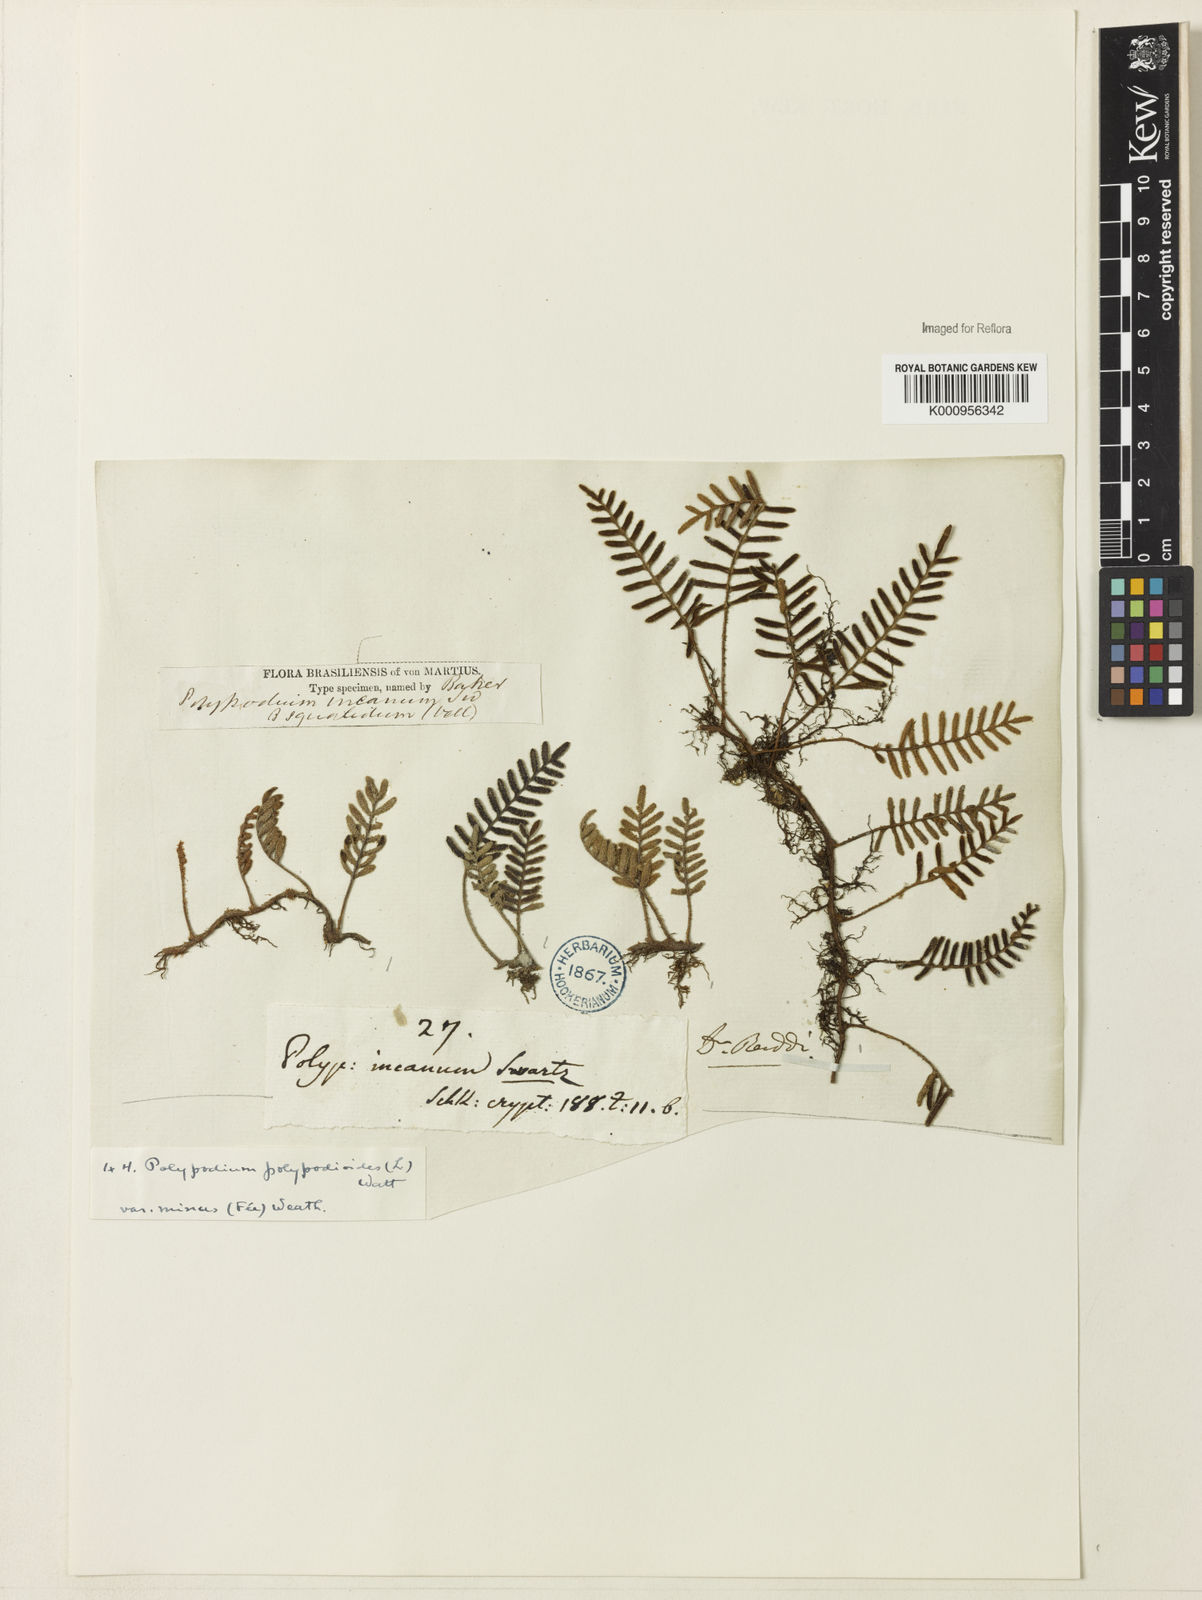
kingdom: Plantae
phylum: Tracheophyta
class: Polypodiopsida
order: Polypodiales
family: Polypodiaceae
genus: Pleopeltis
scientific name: Pleopeltis polypodioides
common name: Resurrection fern
